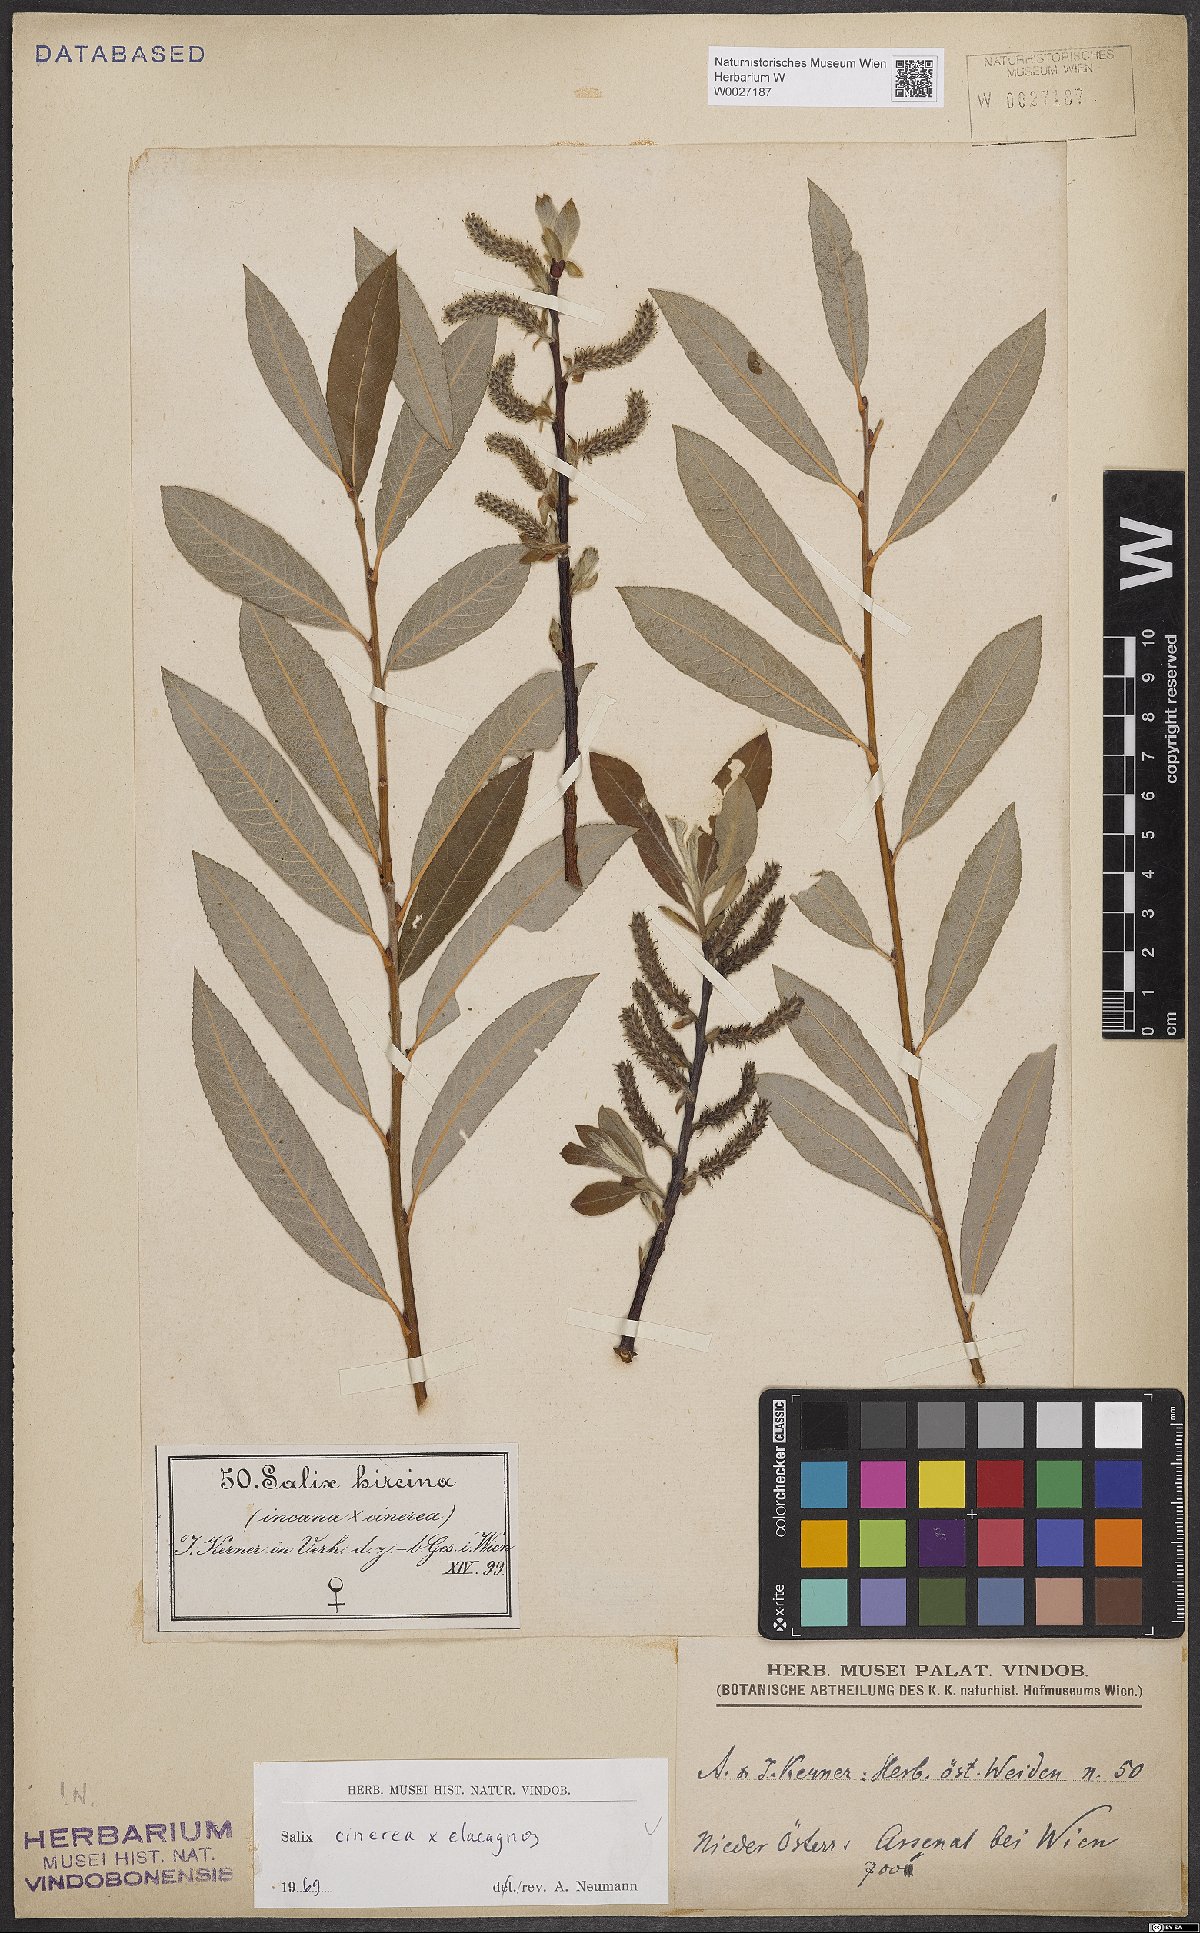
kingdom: Plantae
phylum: Tracheophyta
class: Magnoliopsida
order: Malpighiales
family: Salicaceae
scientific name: Salicaceae
